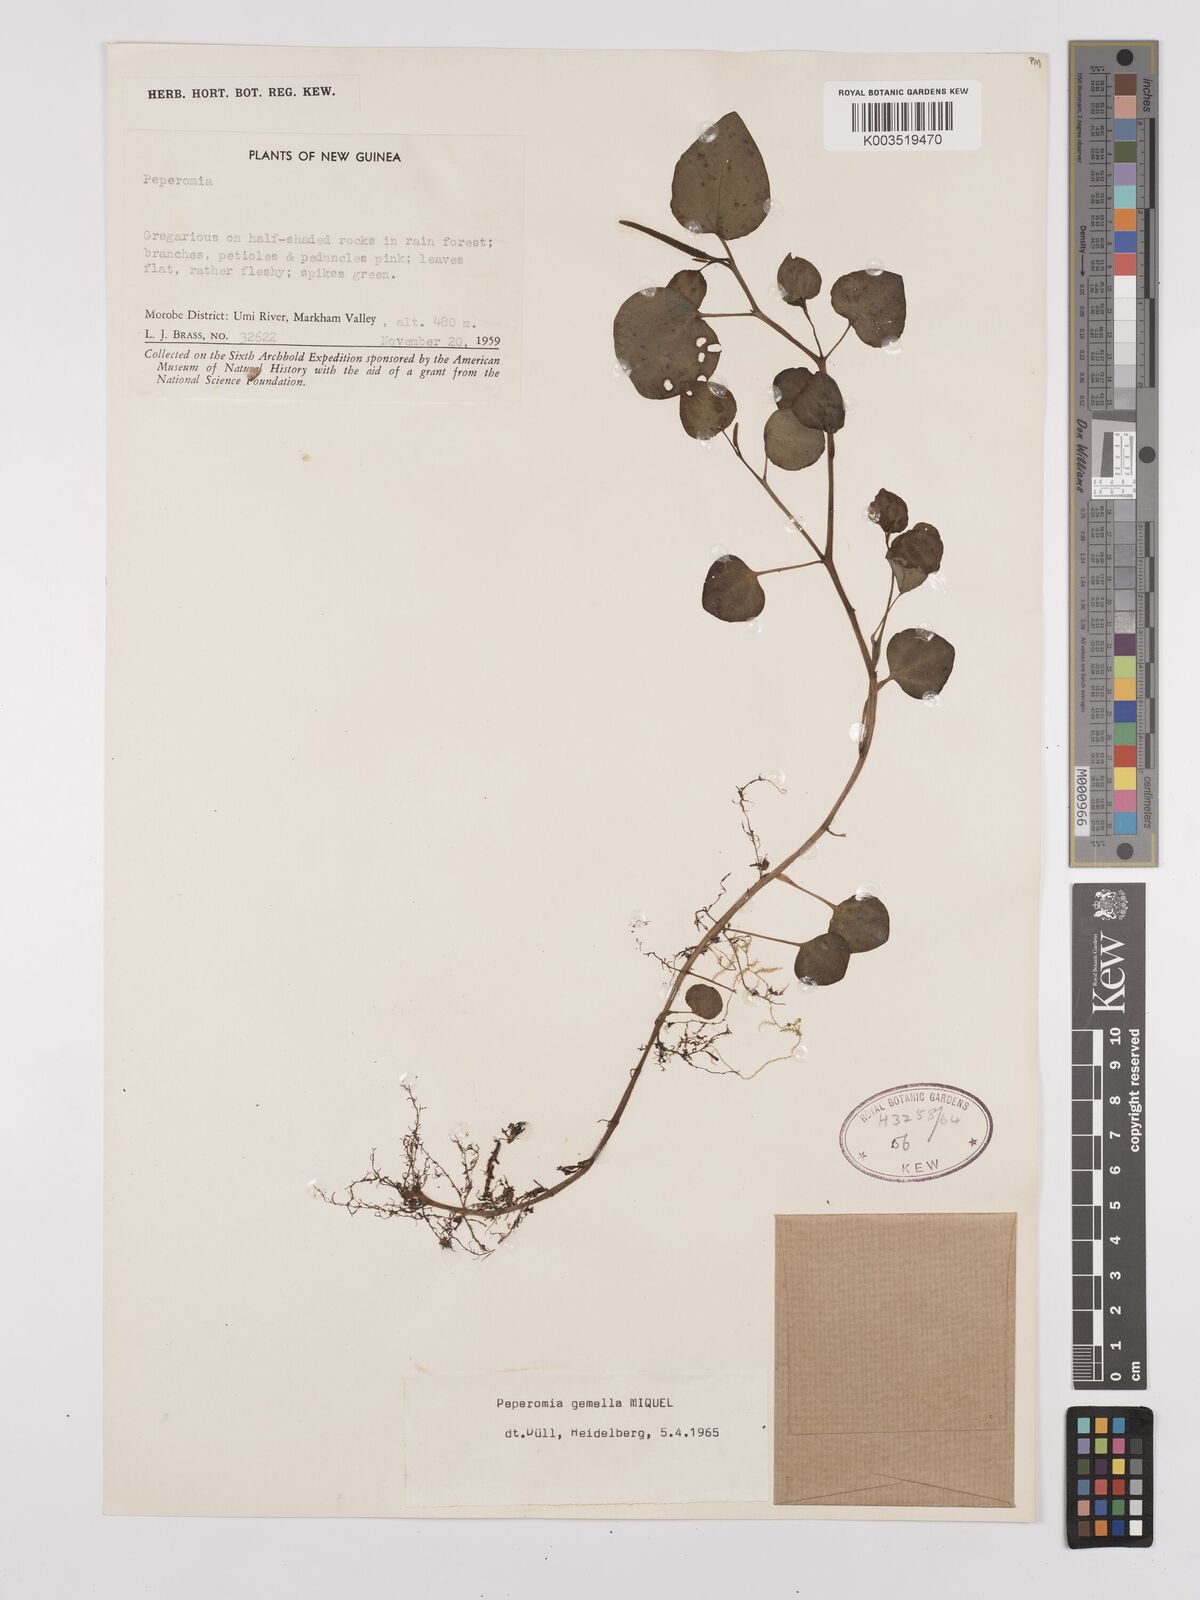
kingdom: Plantae
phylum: Tracheophyta
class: Magnoliopsida
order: Piperales
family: Piperaceae
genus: Peperomia
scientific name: Peperomia gemella
